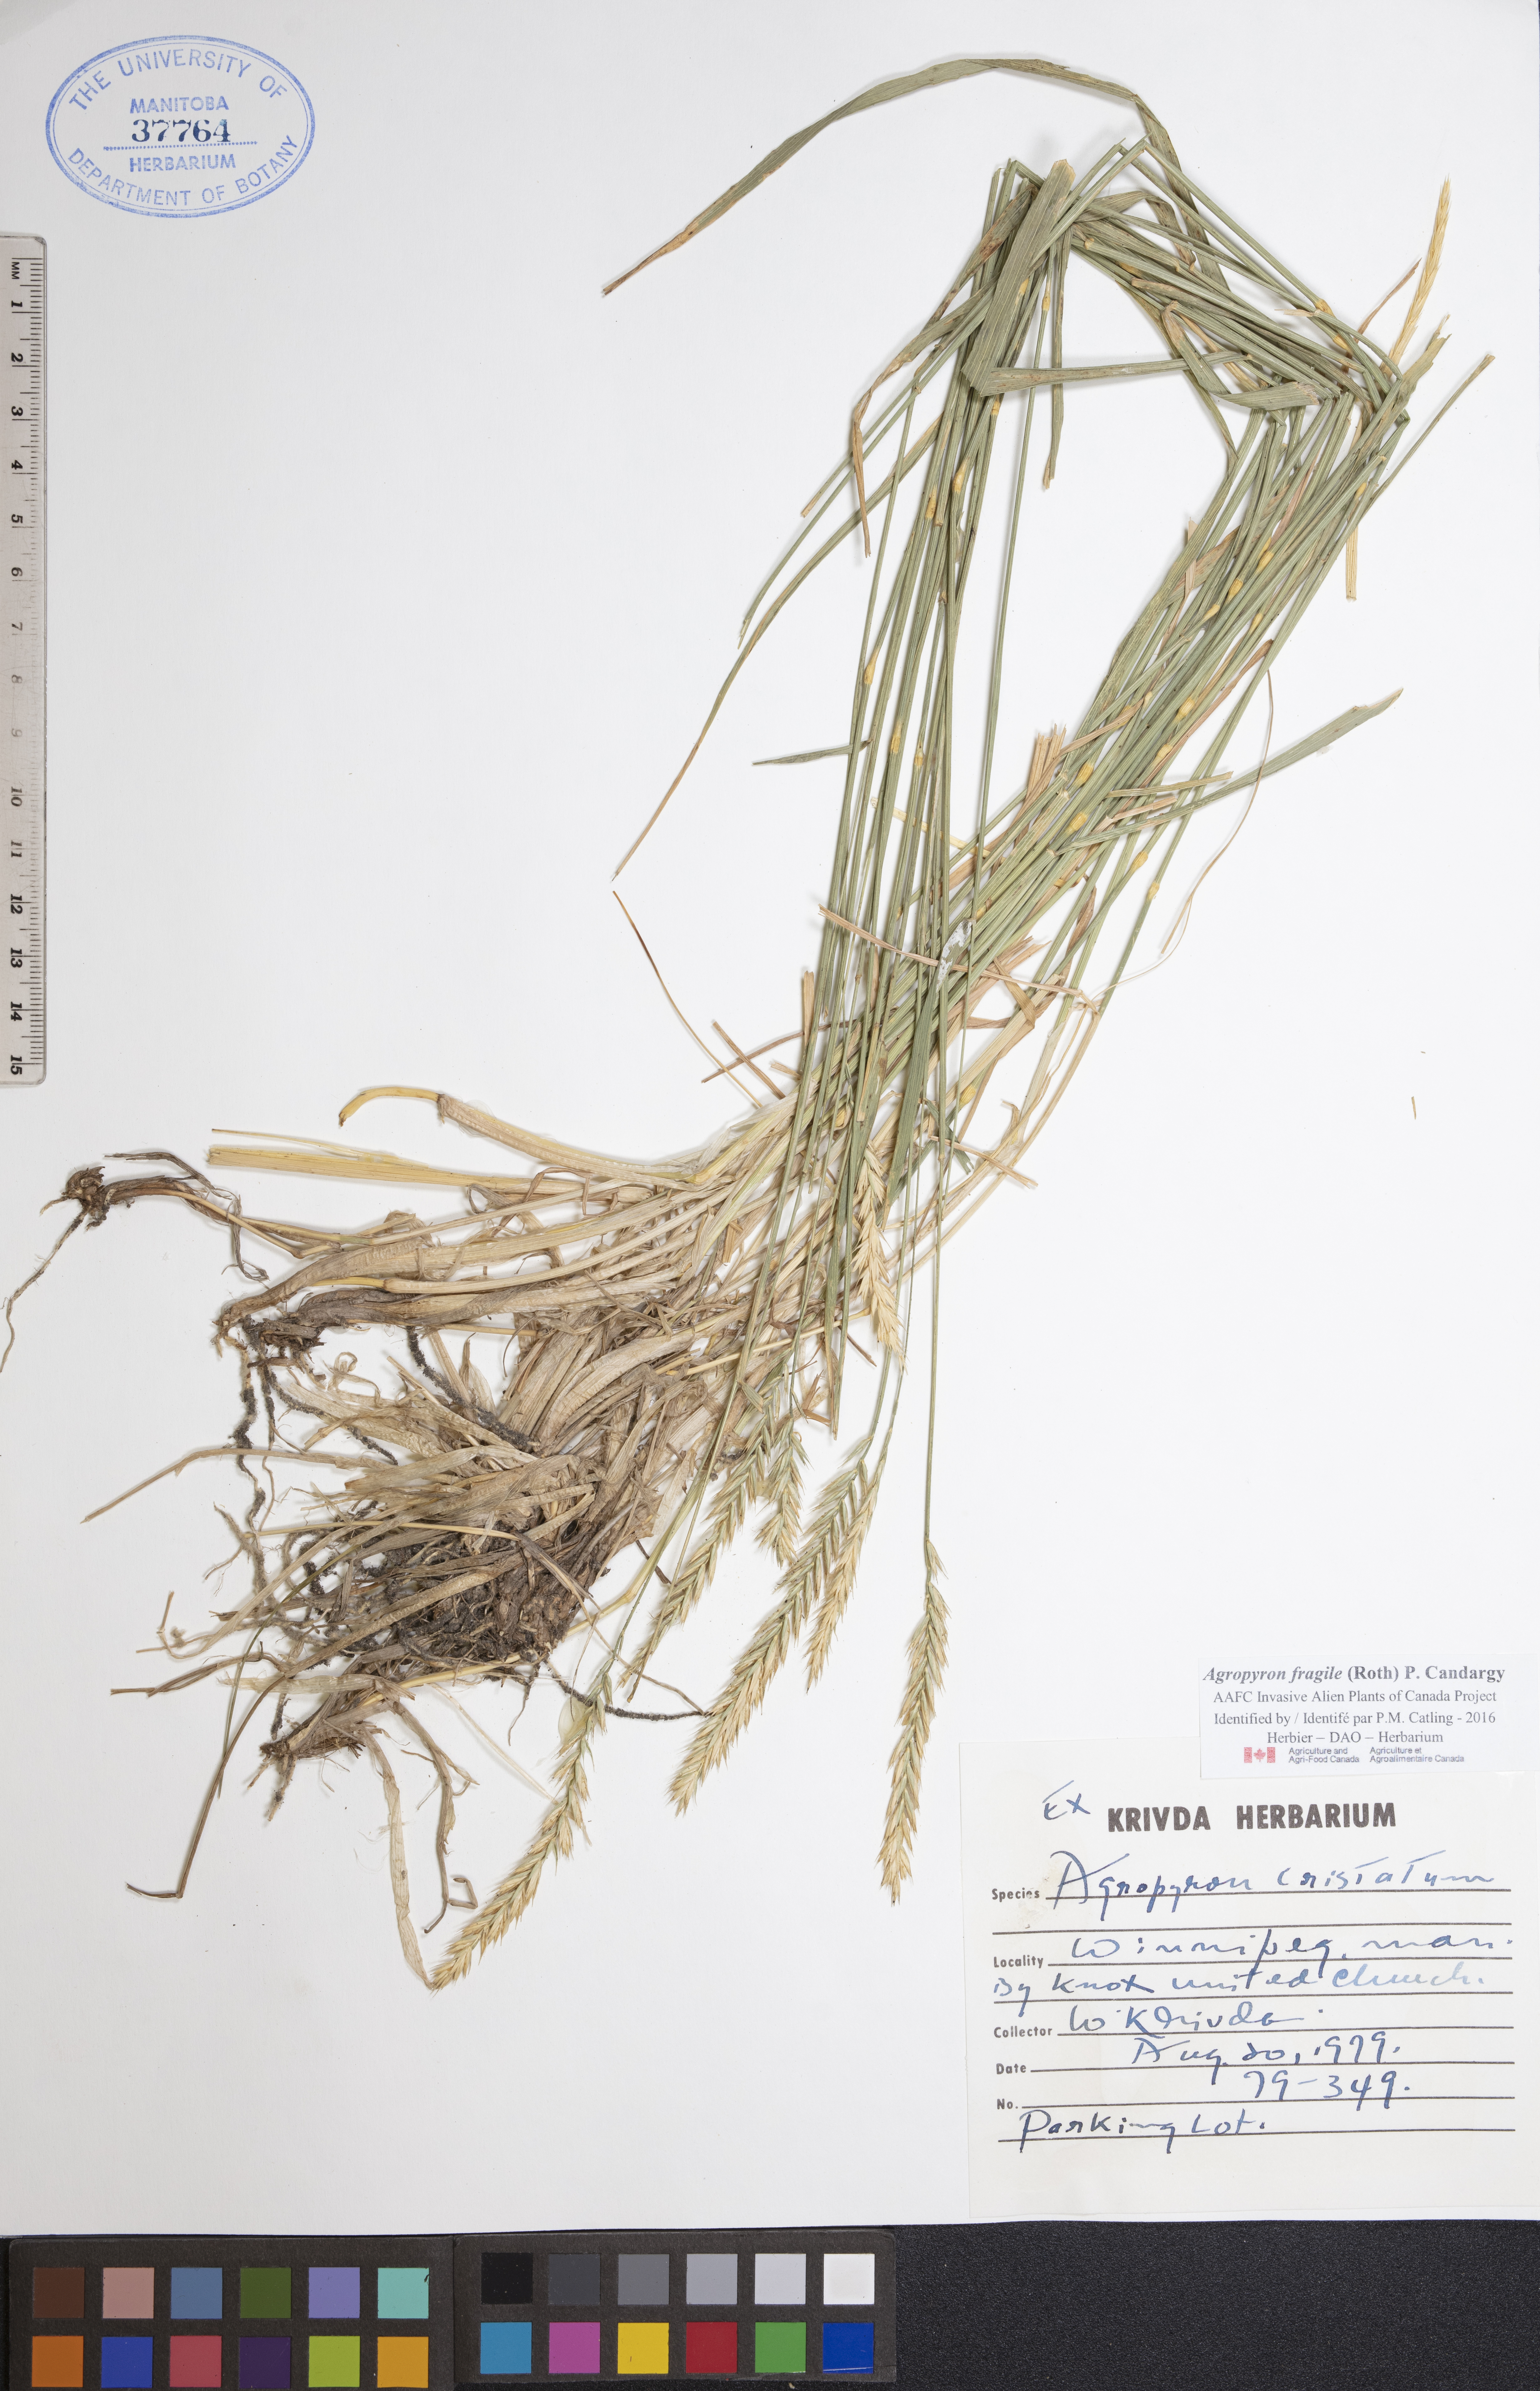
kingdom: Plantae
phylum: Tracheophyta
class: Liliopsida
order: Poales
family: Poaceae
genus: Agropyron
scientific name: Agropyron fragile
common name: Siberian wheatgrass
